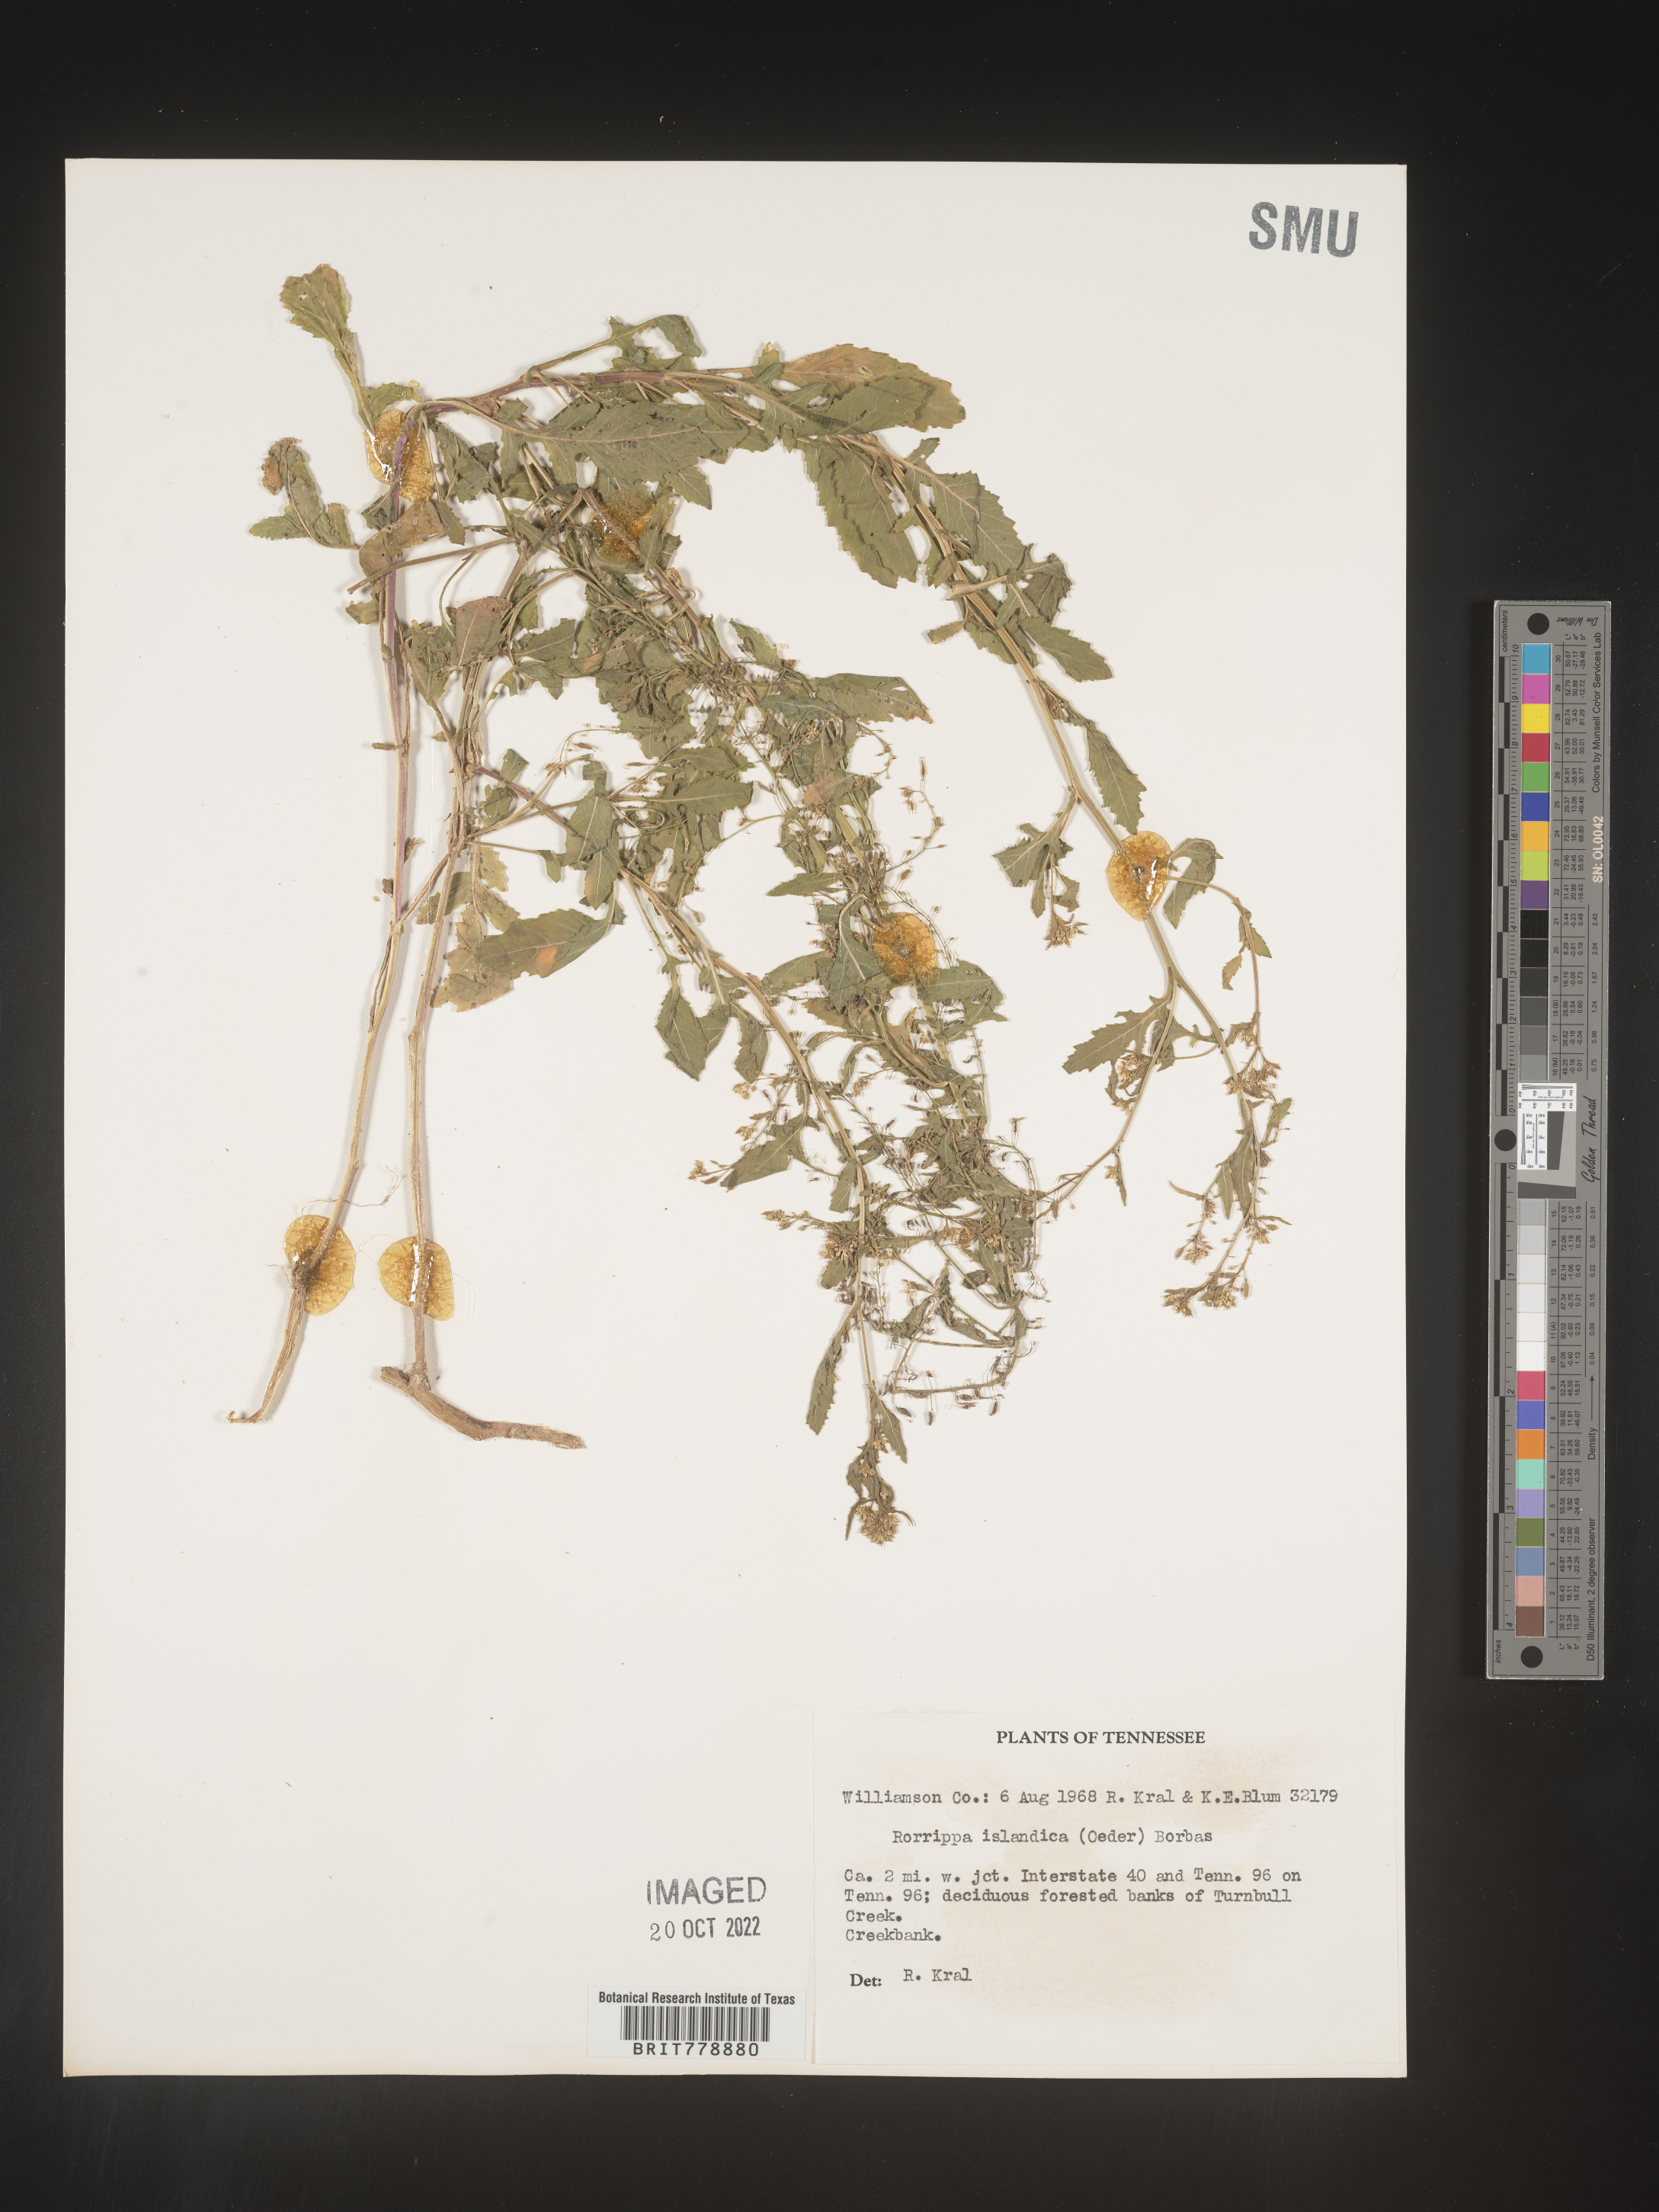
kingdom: Plantae
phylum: Tracheophyta
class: Magnoliopsida
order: Brassicales
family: Brassicaceae
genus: Rorippa
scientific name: Rorippa palustris
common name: Marsh yellow-cress
